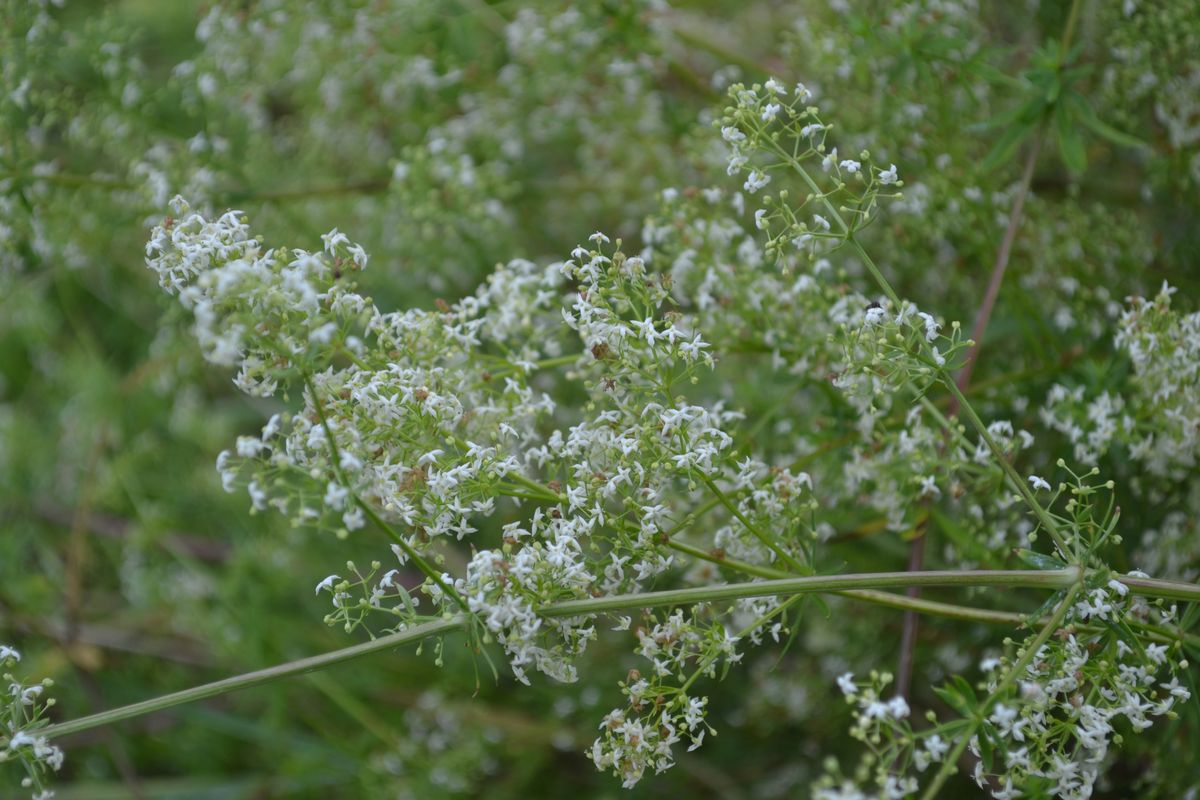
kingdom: Plantae
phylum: Tracheophyta
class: Magnoliopsida
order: Gentianales
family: Rubiaceae
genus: Galium
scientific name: Galium mollugo
